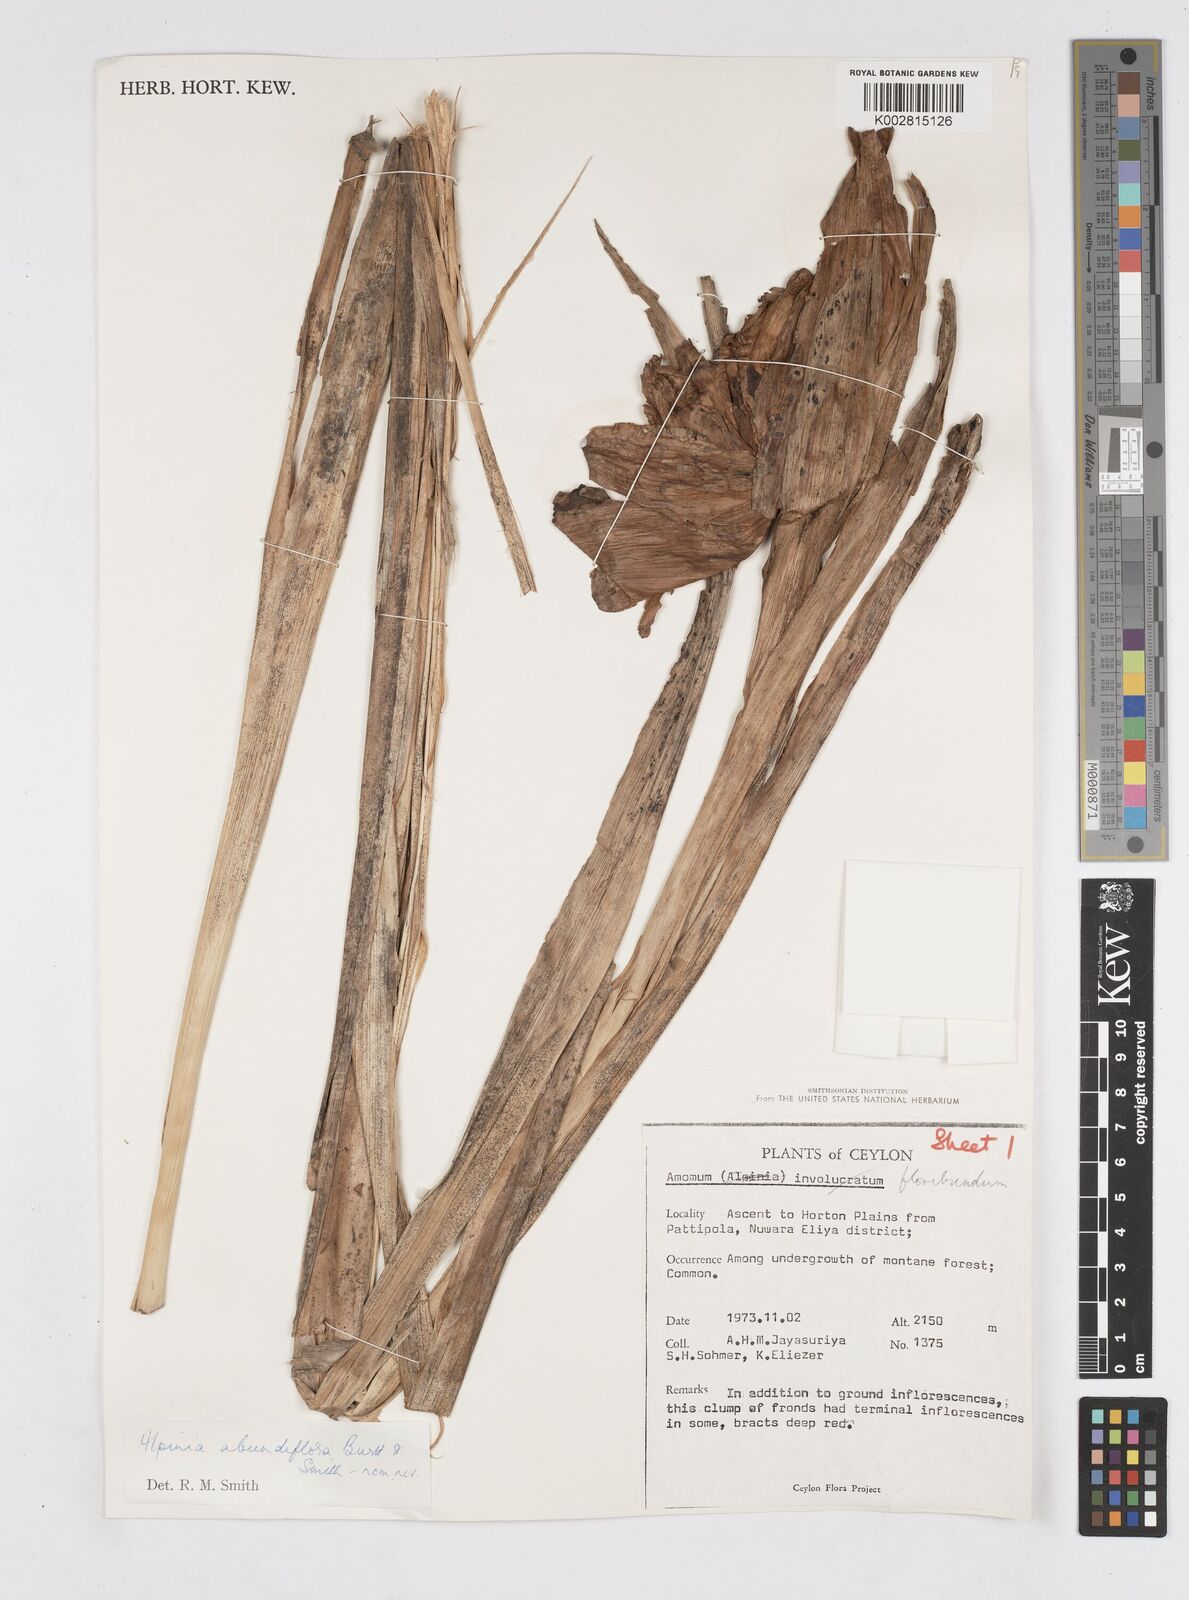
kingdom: Plantae
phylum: Tracheophyta
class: Liliopsida
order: Zingiberales
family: Zingiberaceae
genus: Alpinia
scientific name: Alpinia abundiflora
